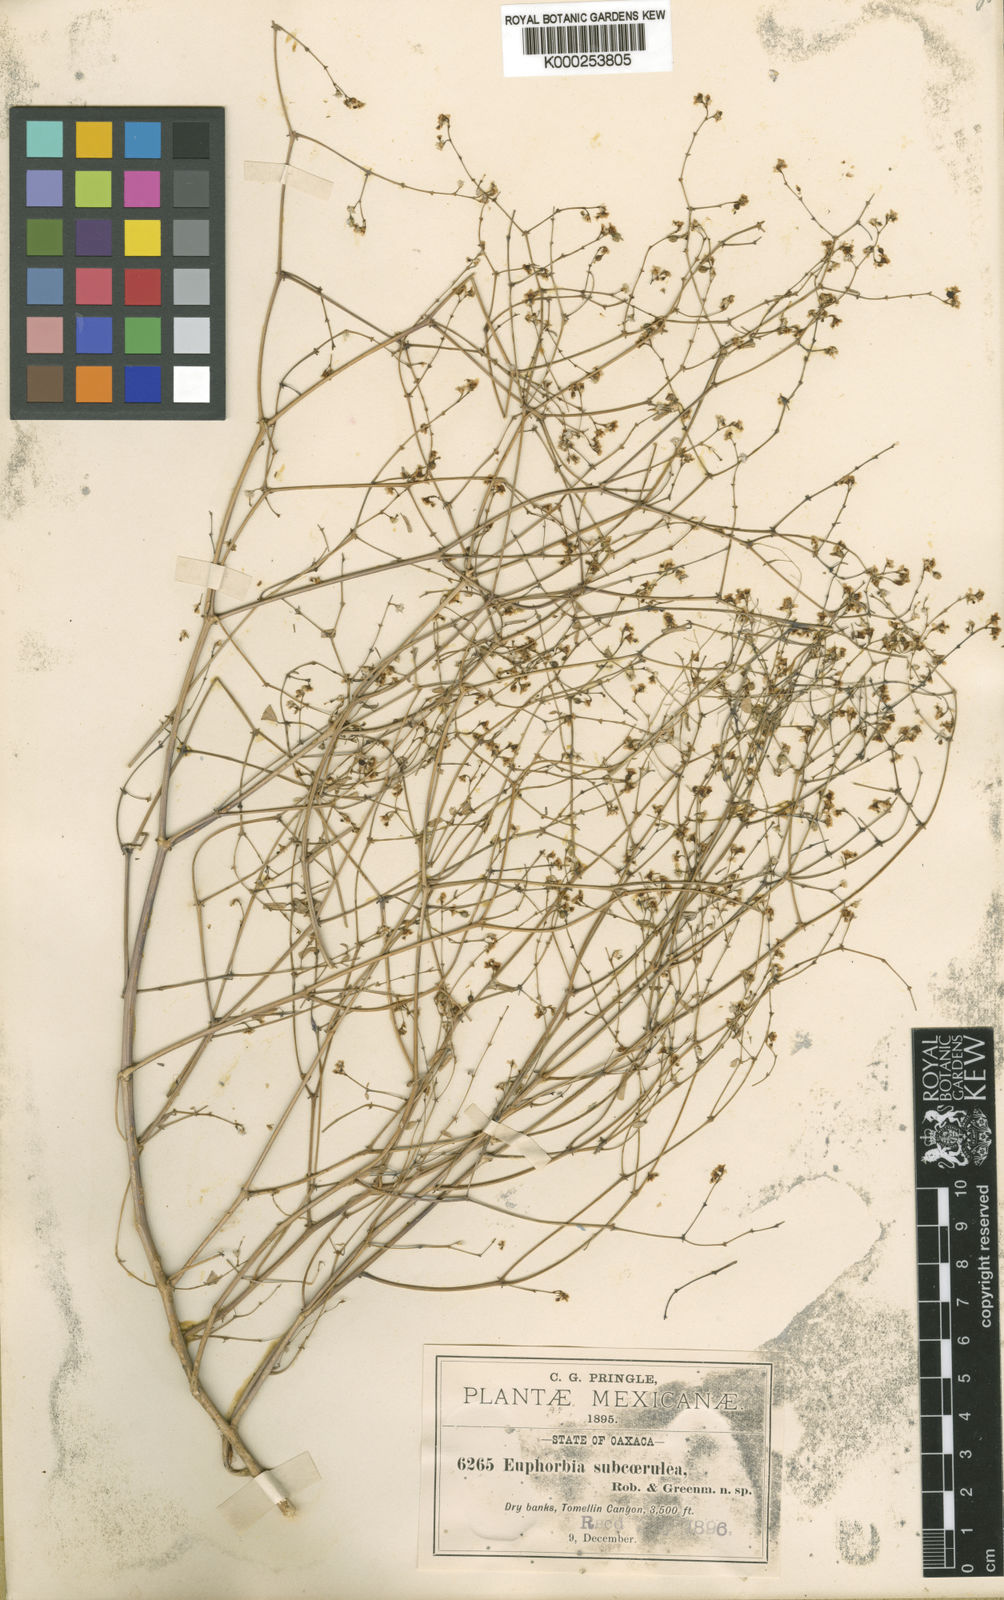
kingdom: Plantae
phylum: Tracheophyta
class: Magnoliopsida
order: Malpighiales
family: Euphorbiaceae
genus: Euphorbia
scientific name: Euphorbia delicatula
